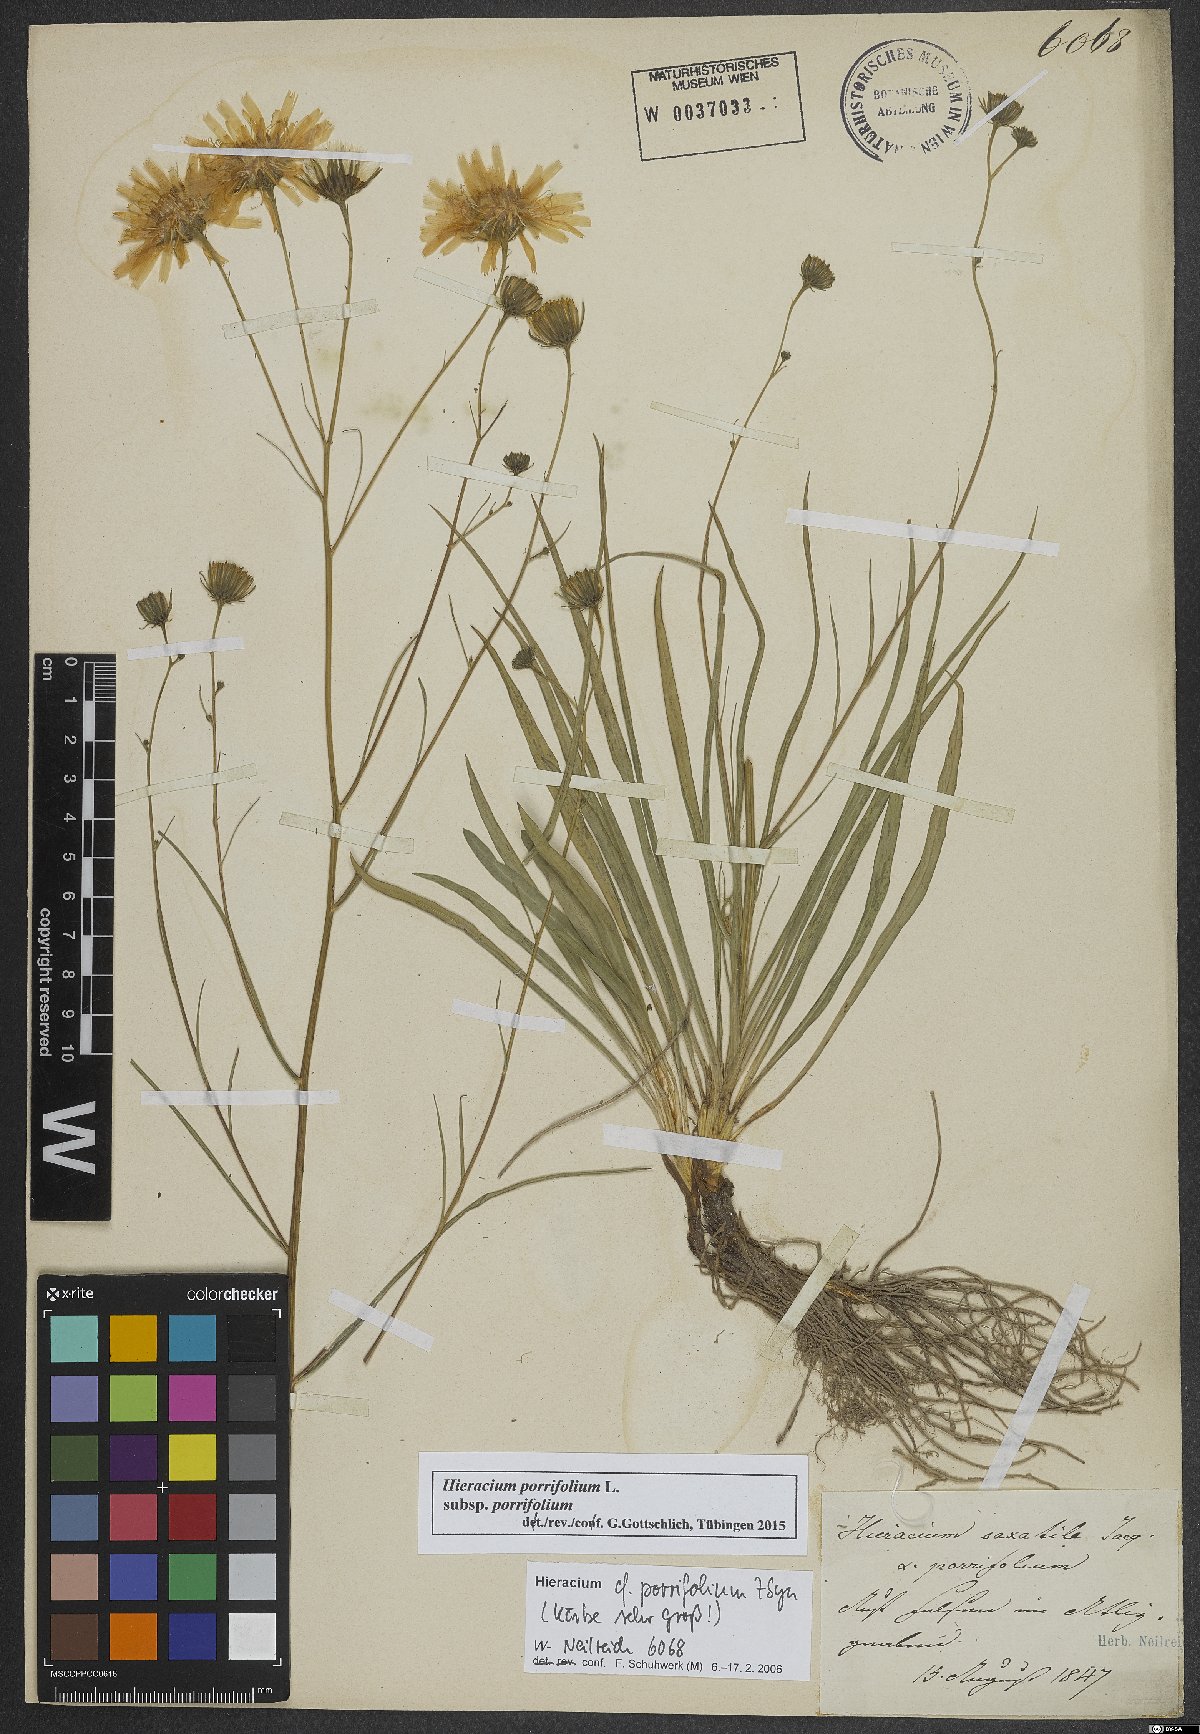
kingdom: Plantae
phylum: Tracheophyta
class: Magnoliopsida
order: Asterales
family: Asteraceae
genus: Hieracium
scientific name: Hieracium porrifolium
